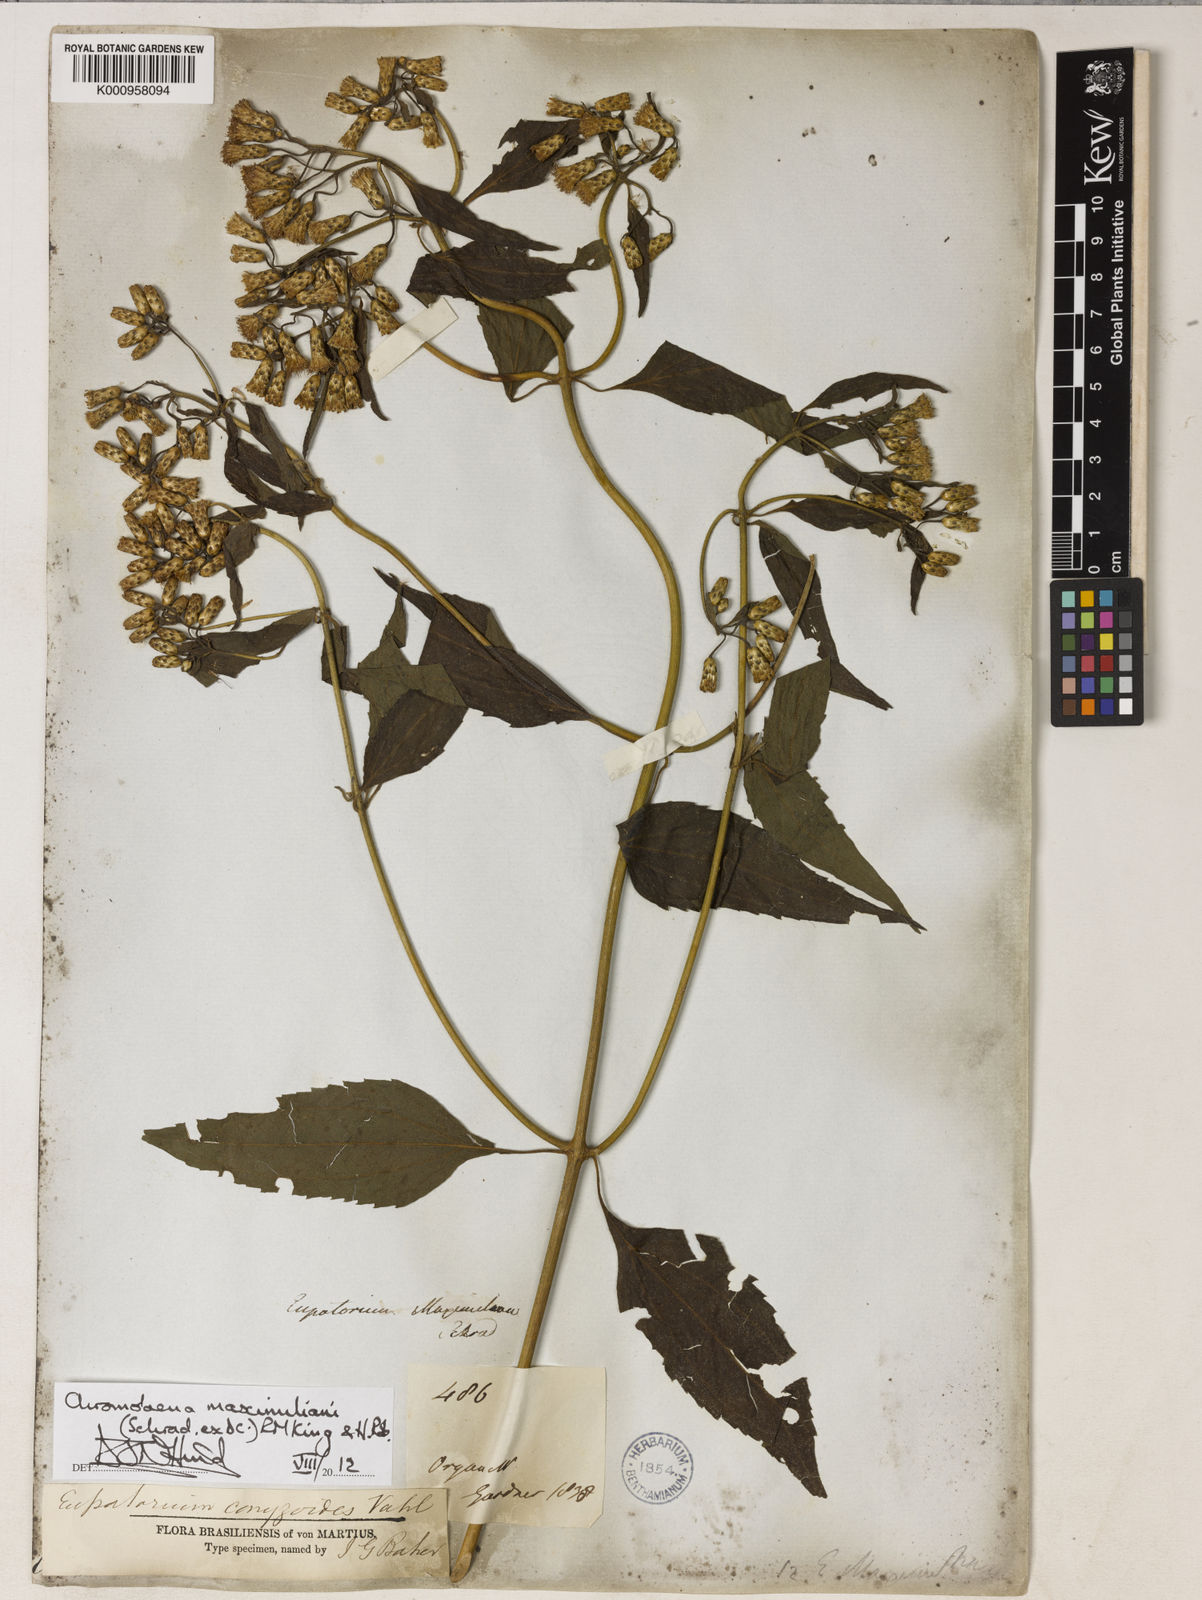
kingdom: Plantae
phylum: Tracheophyta
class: Magnoliopsida
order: Asterales
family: Asteraceae
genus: Chromolaena
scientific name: Chromolaena maximiliani
